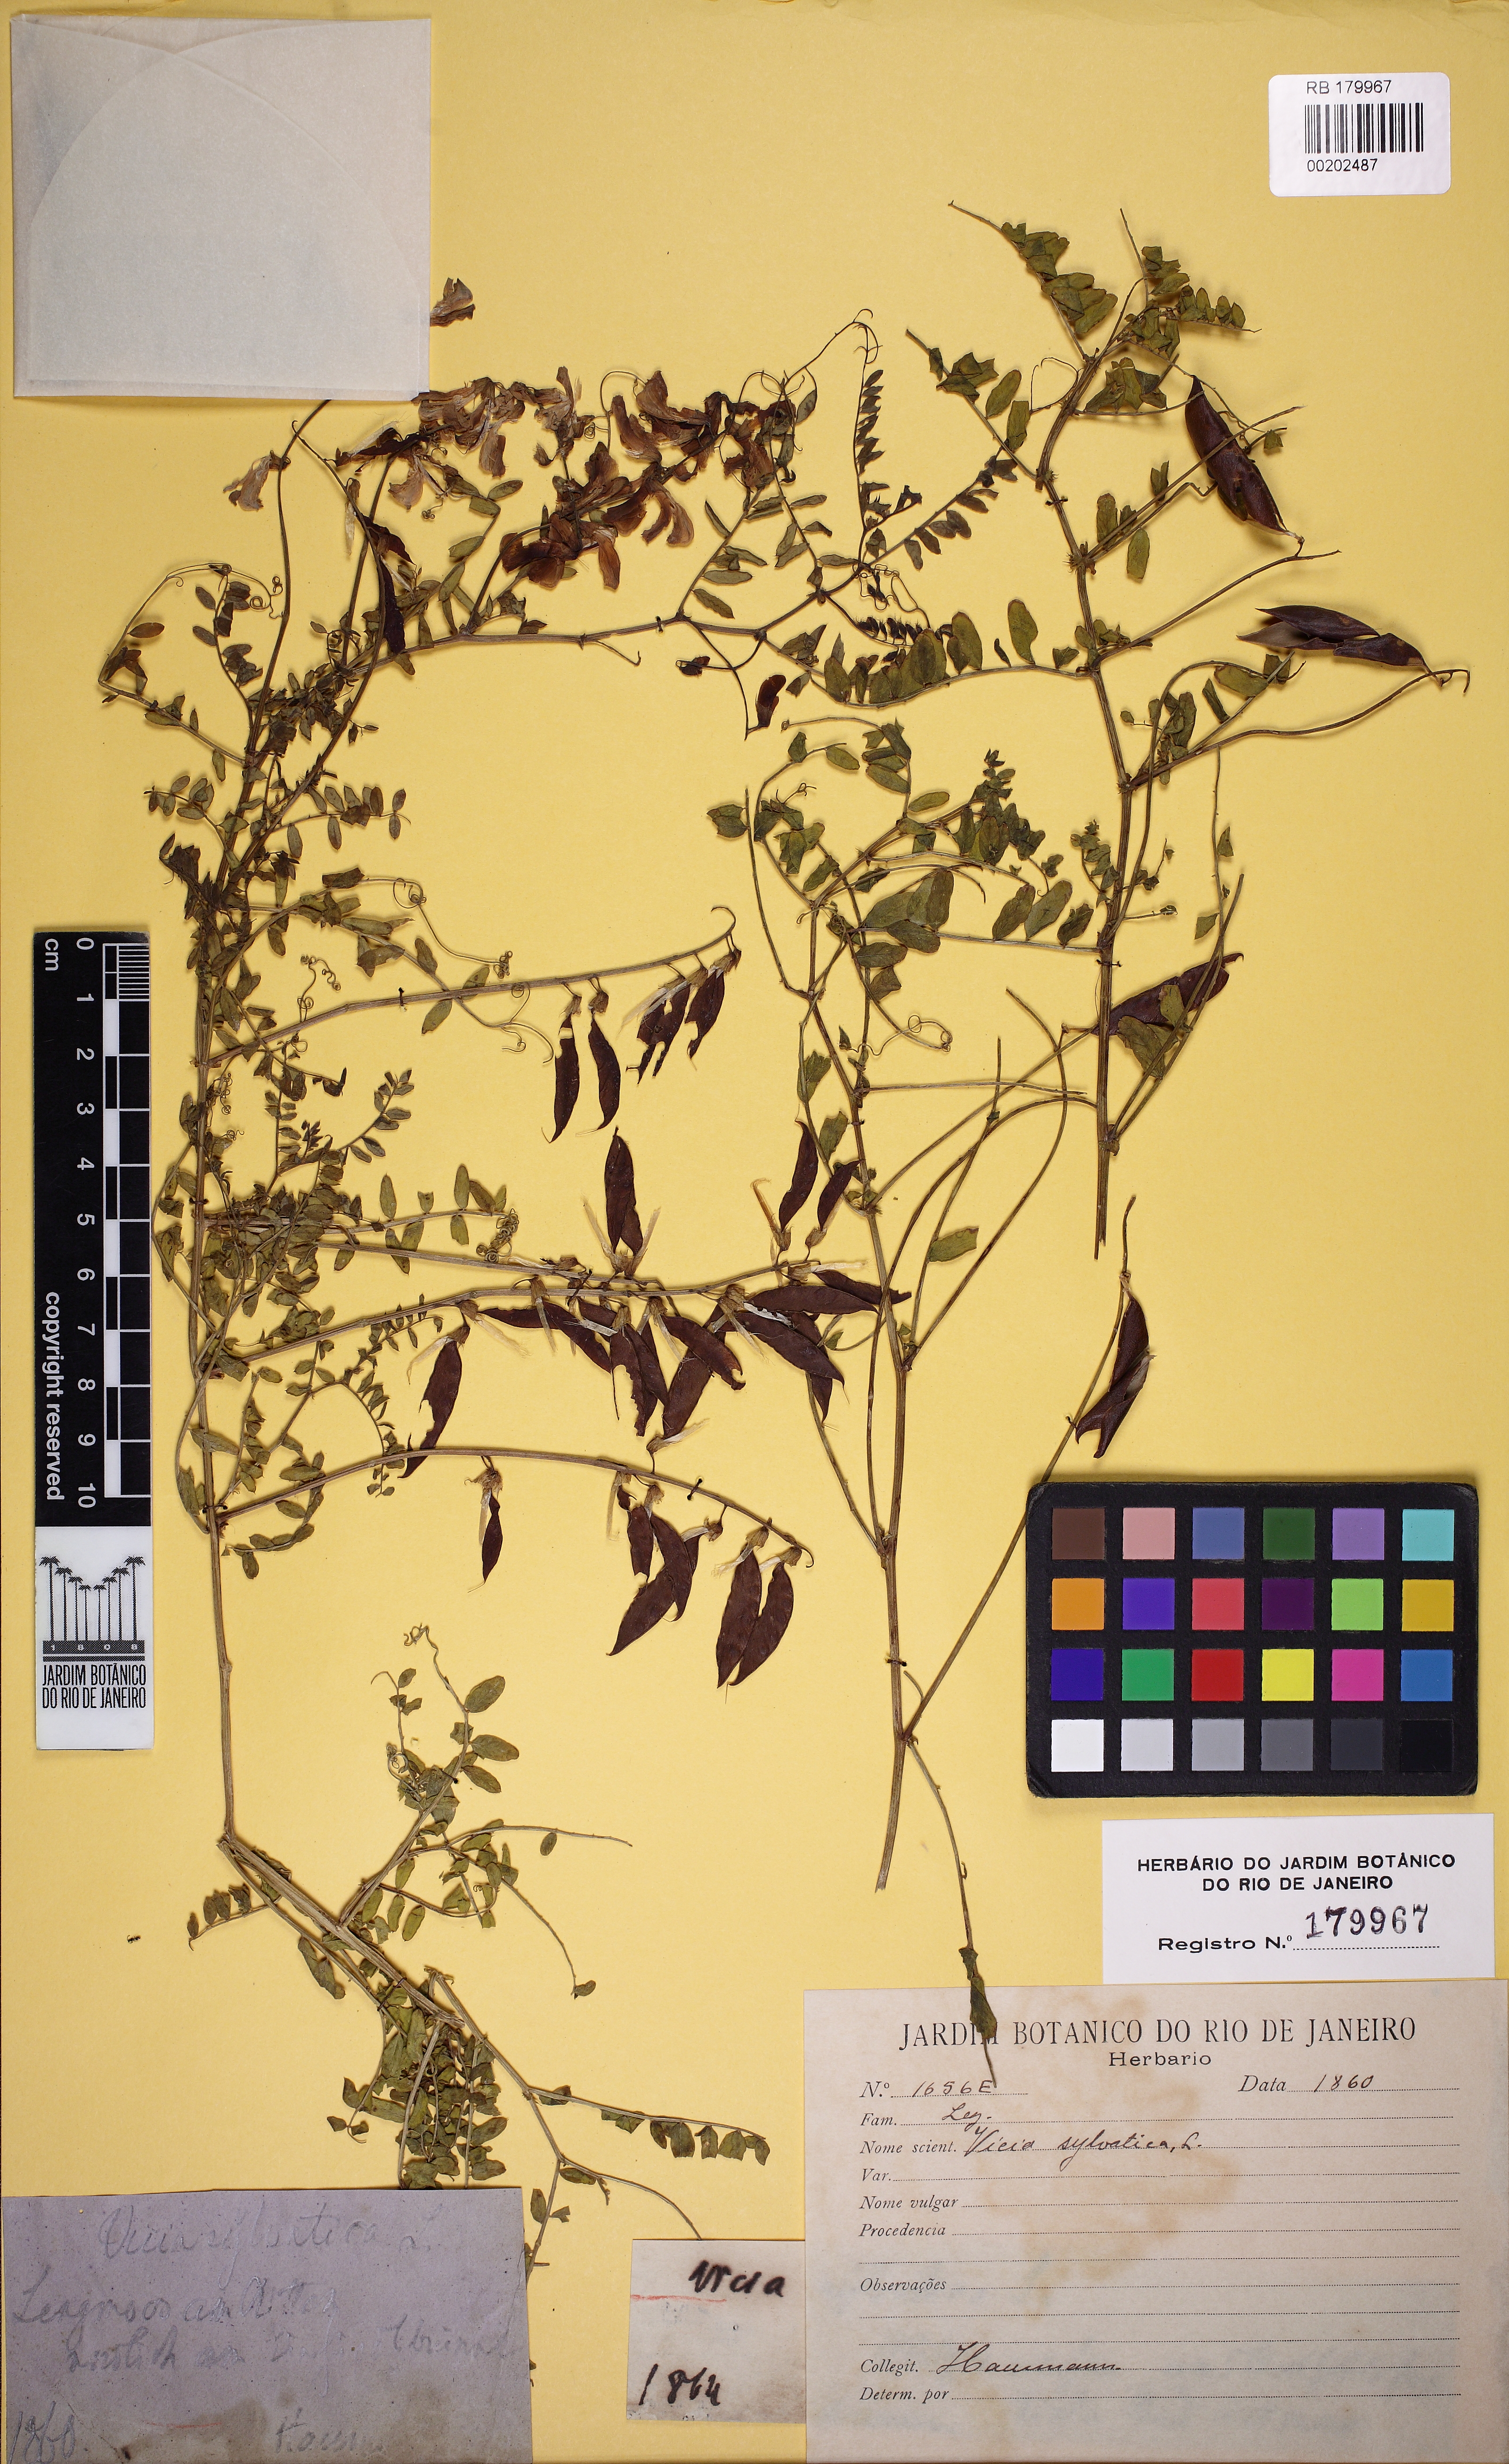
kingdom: Plantae
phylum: Tracheophyta
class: Magnoliopsida
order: Fabales
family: Fabaceae
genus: Vicia
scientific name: Vicia sylvatica
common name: Wood vetch
